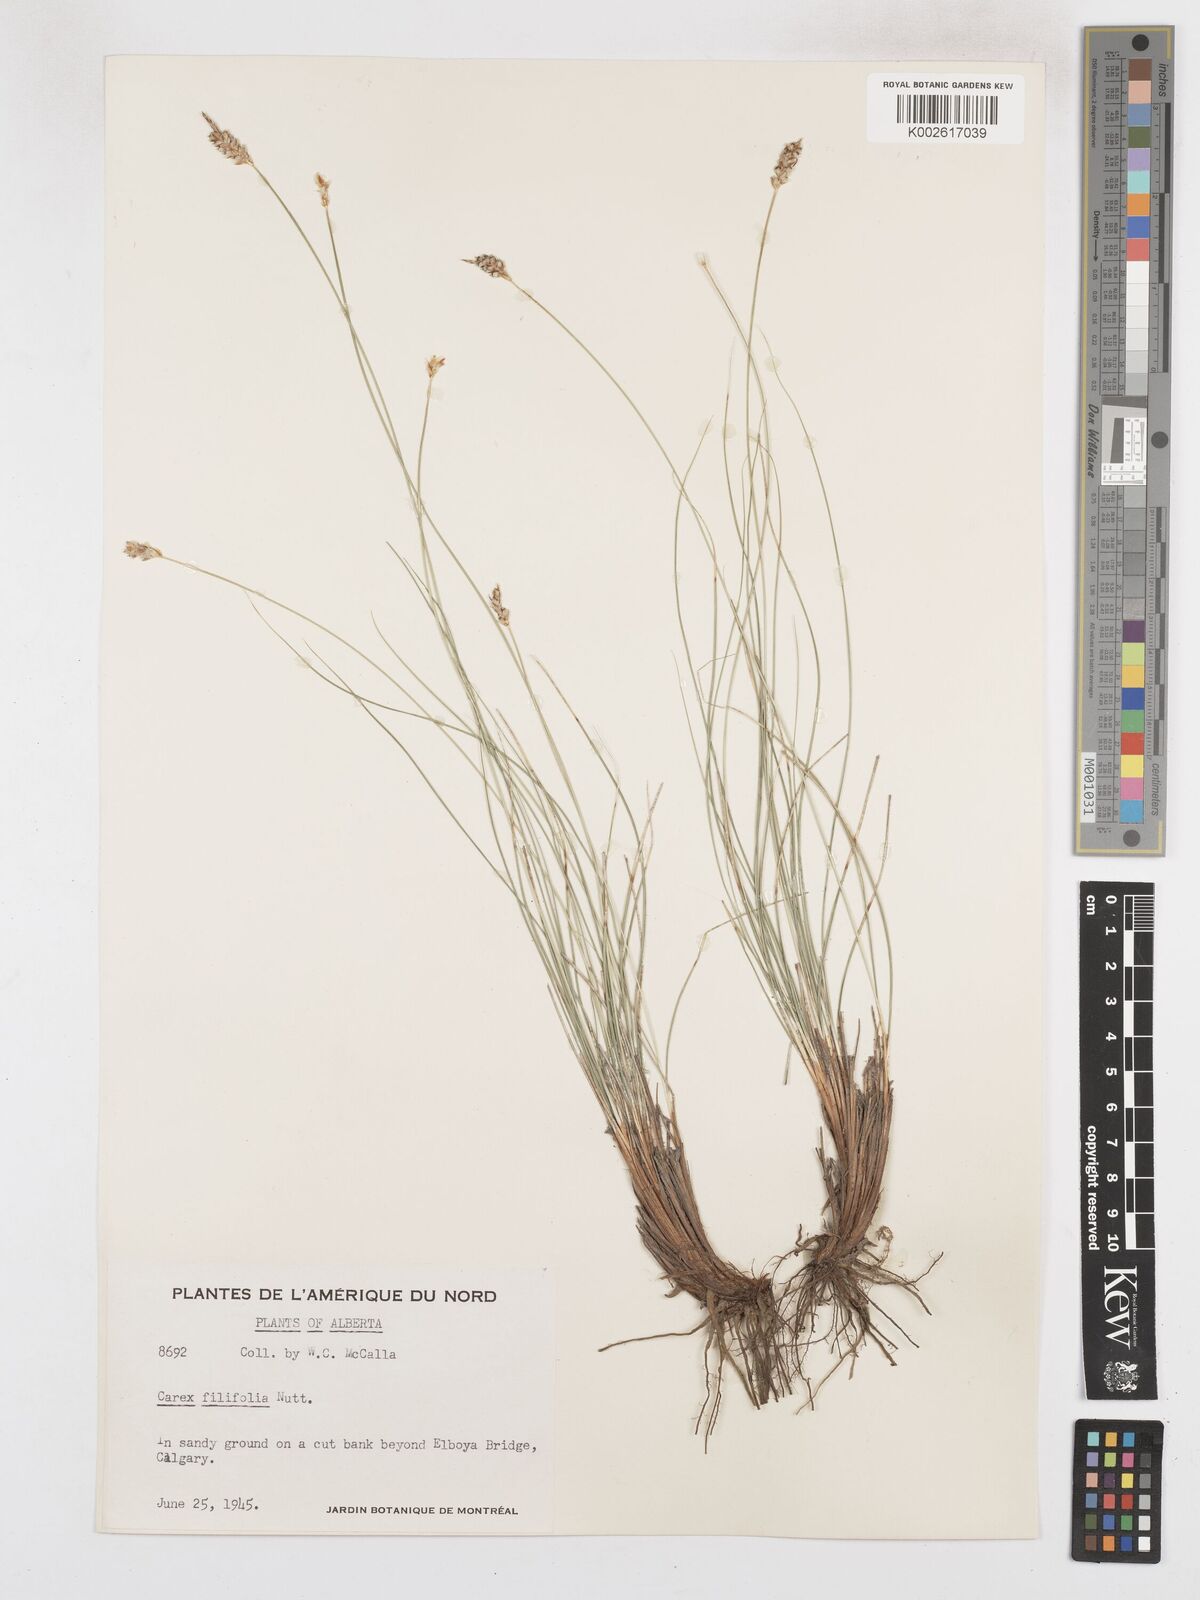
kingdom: Plantae
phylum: Tracheophyta
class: Liliopsida
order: Poales
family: Cyperaceae
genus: Carex
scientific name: Carex filifolia
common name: Threadleaf sedge
